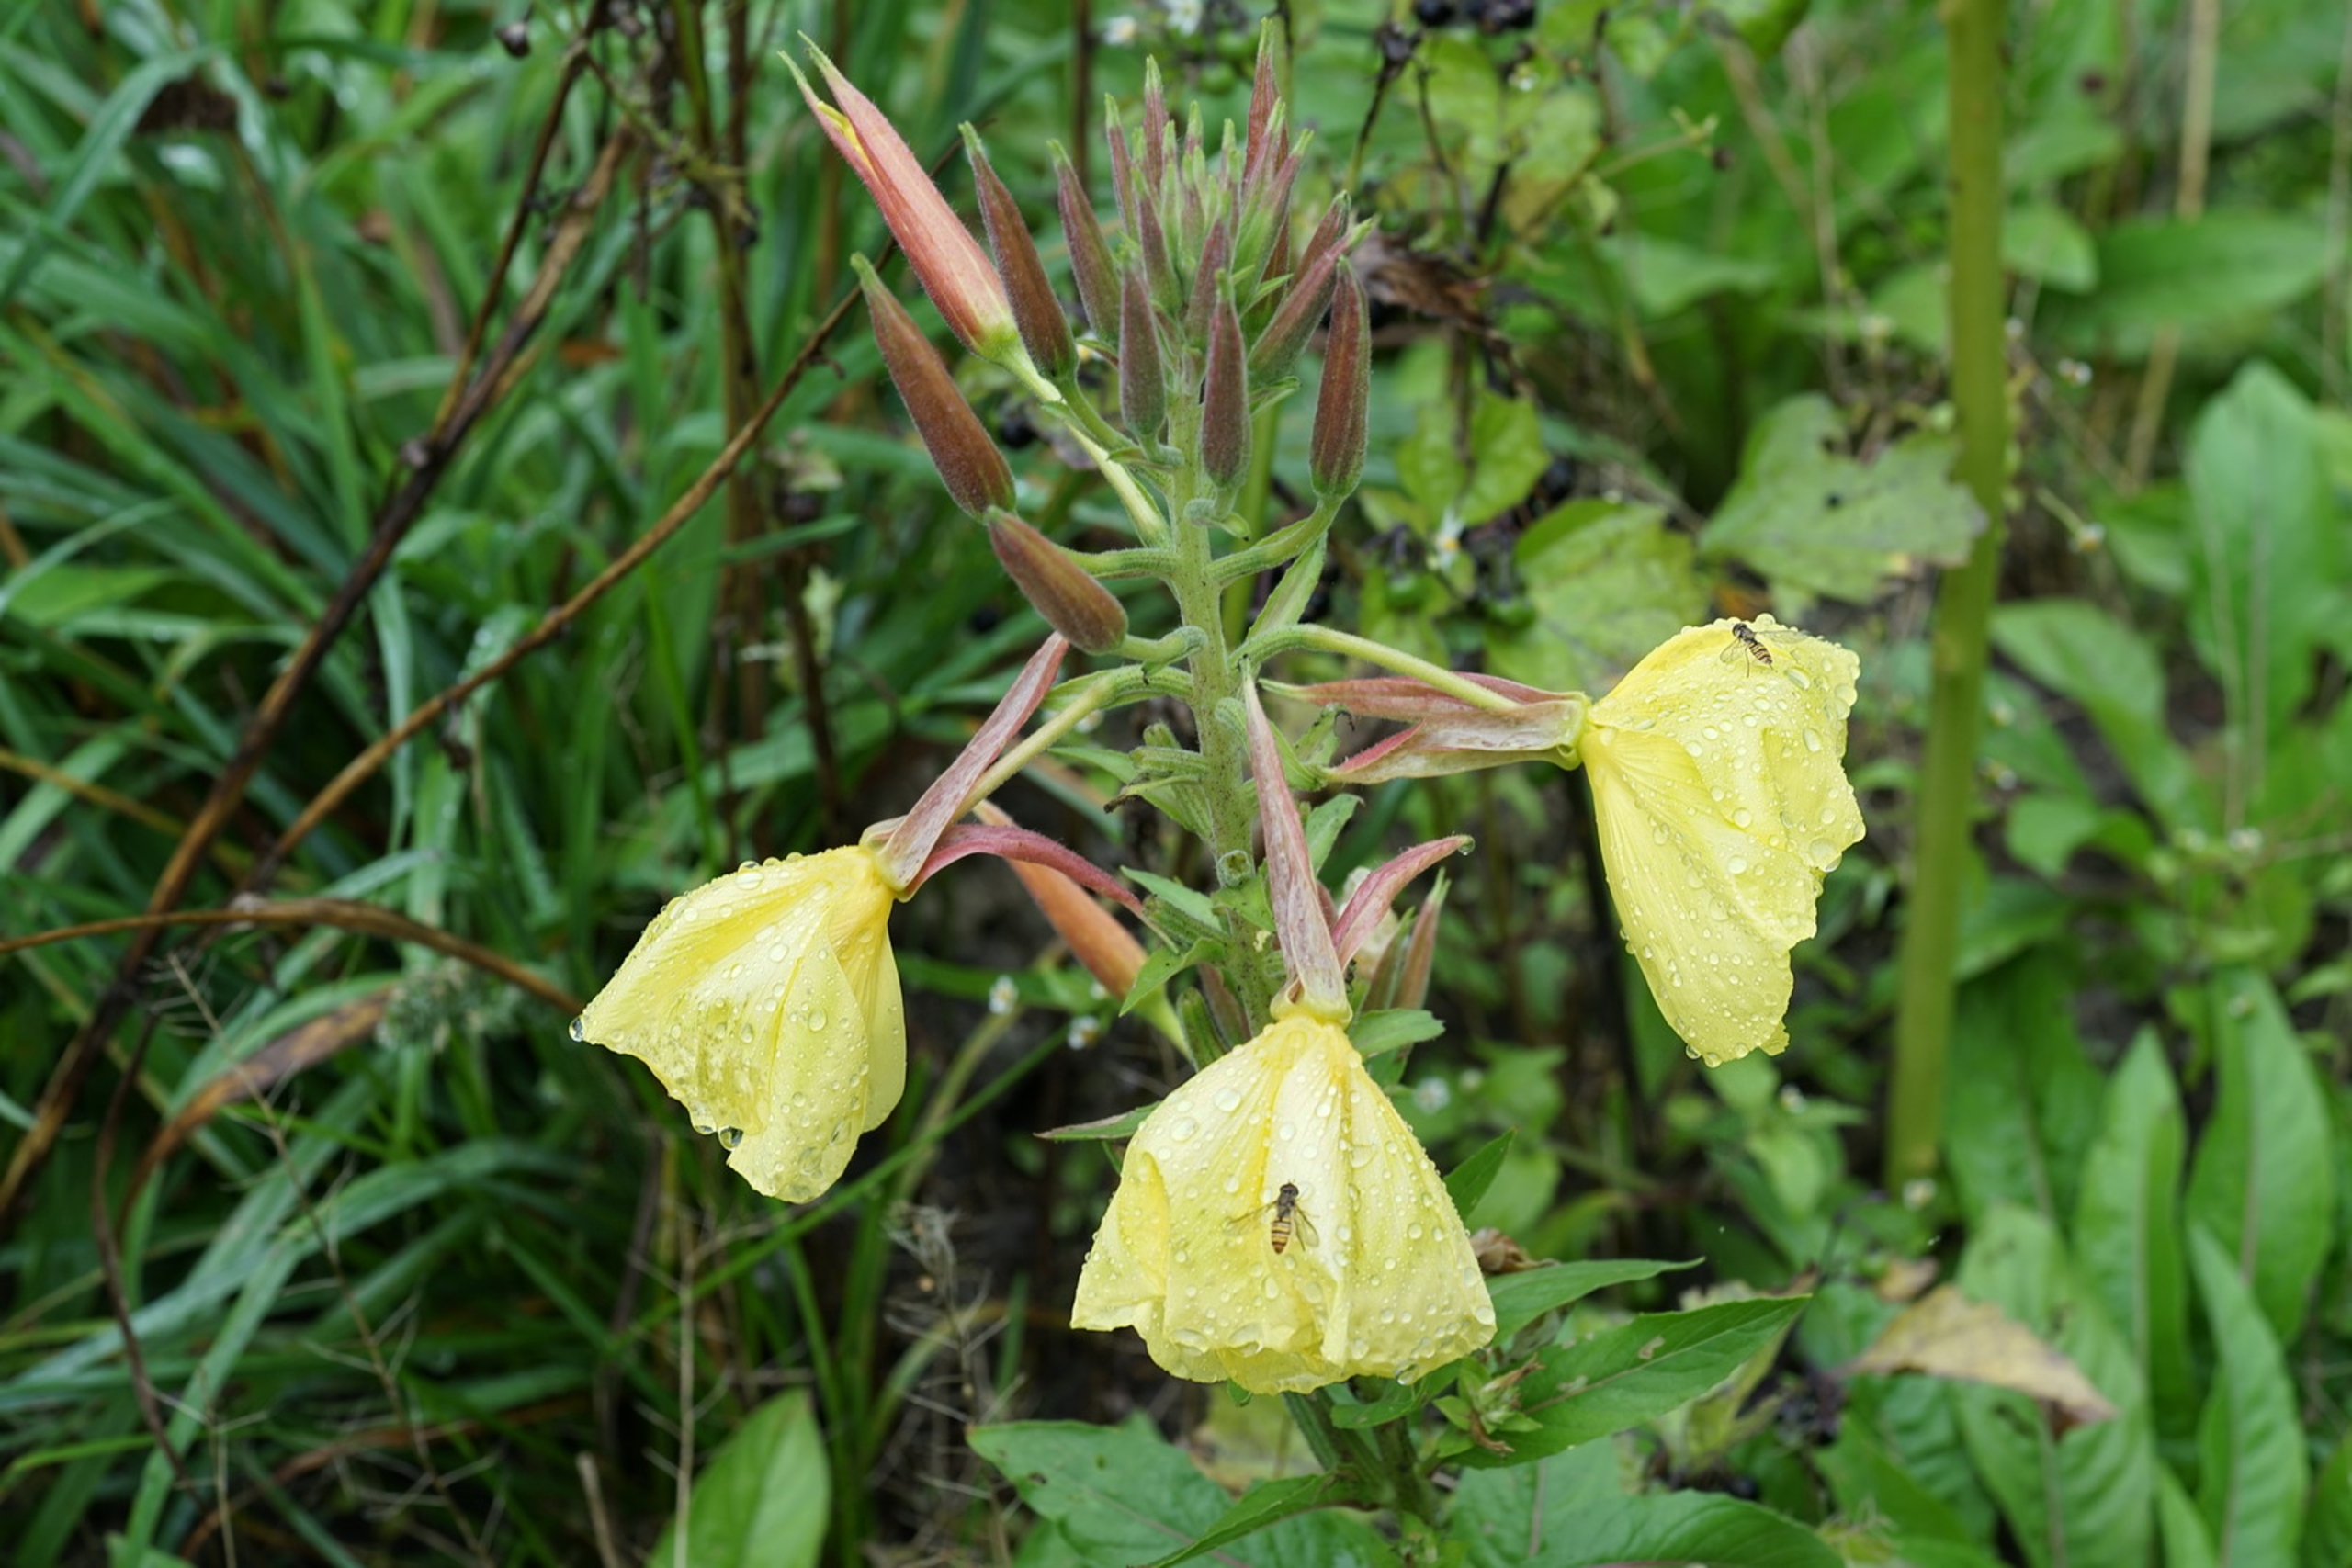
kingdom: Plantae
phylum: Tracheophyta
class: Magnoliopsida
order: Myrtales
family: Onagraceae
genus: Oenothera
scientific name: Oenothera glazioviana
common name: Kæmpe-natlys
